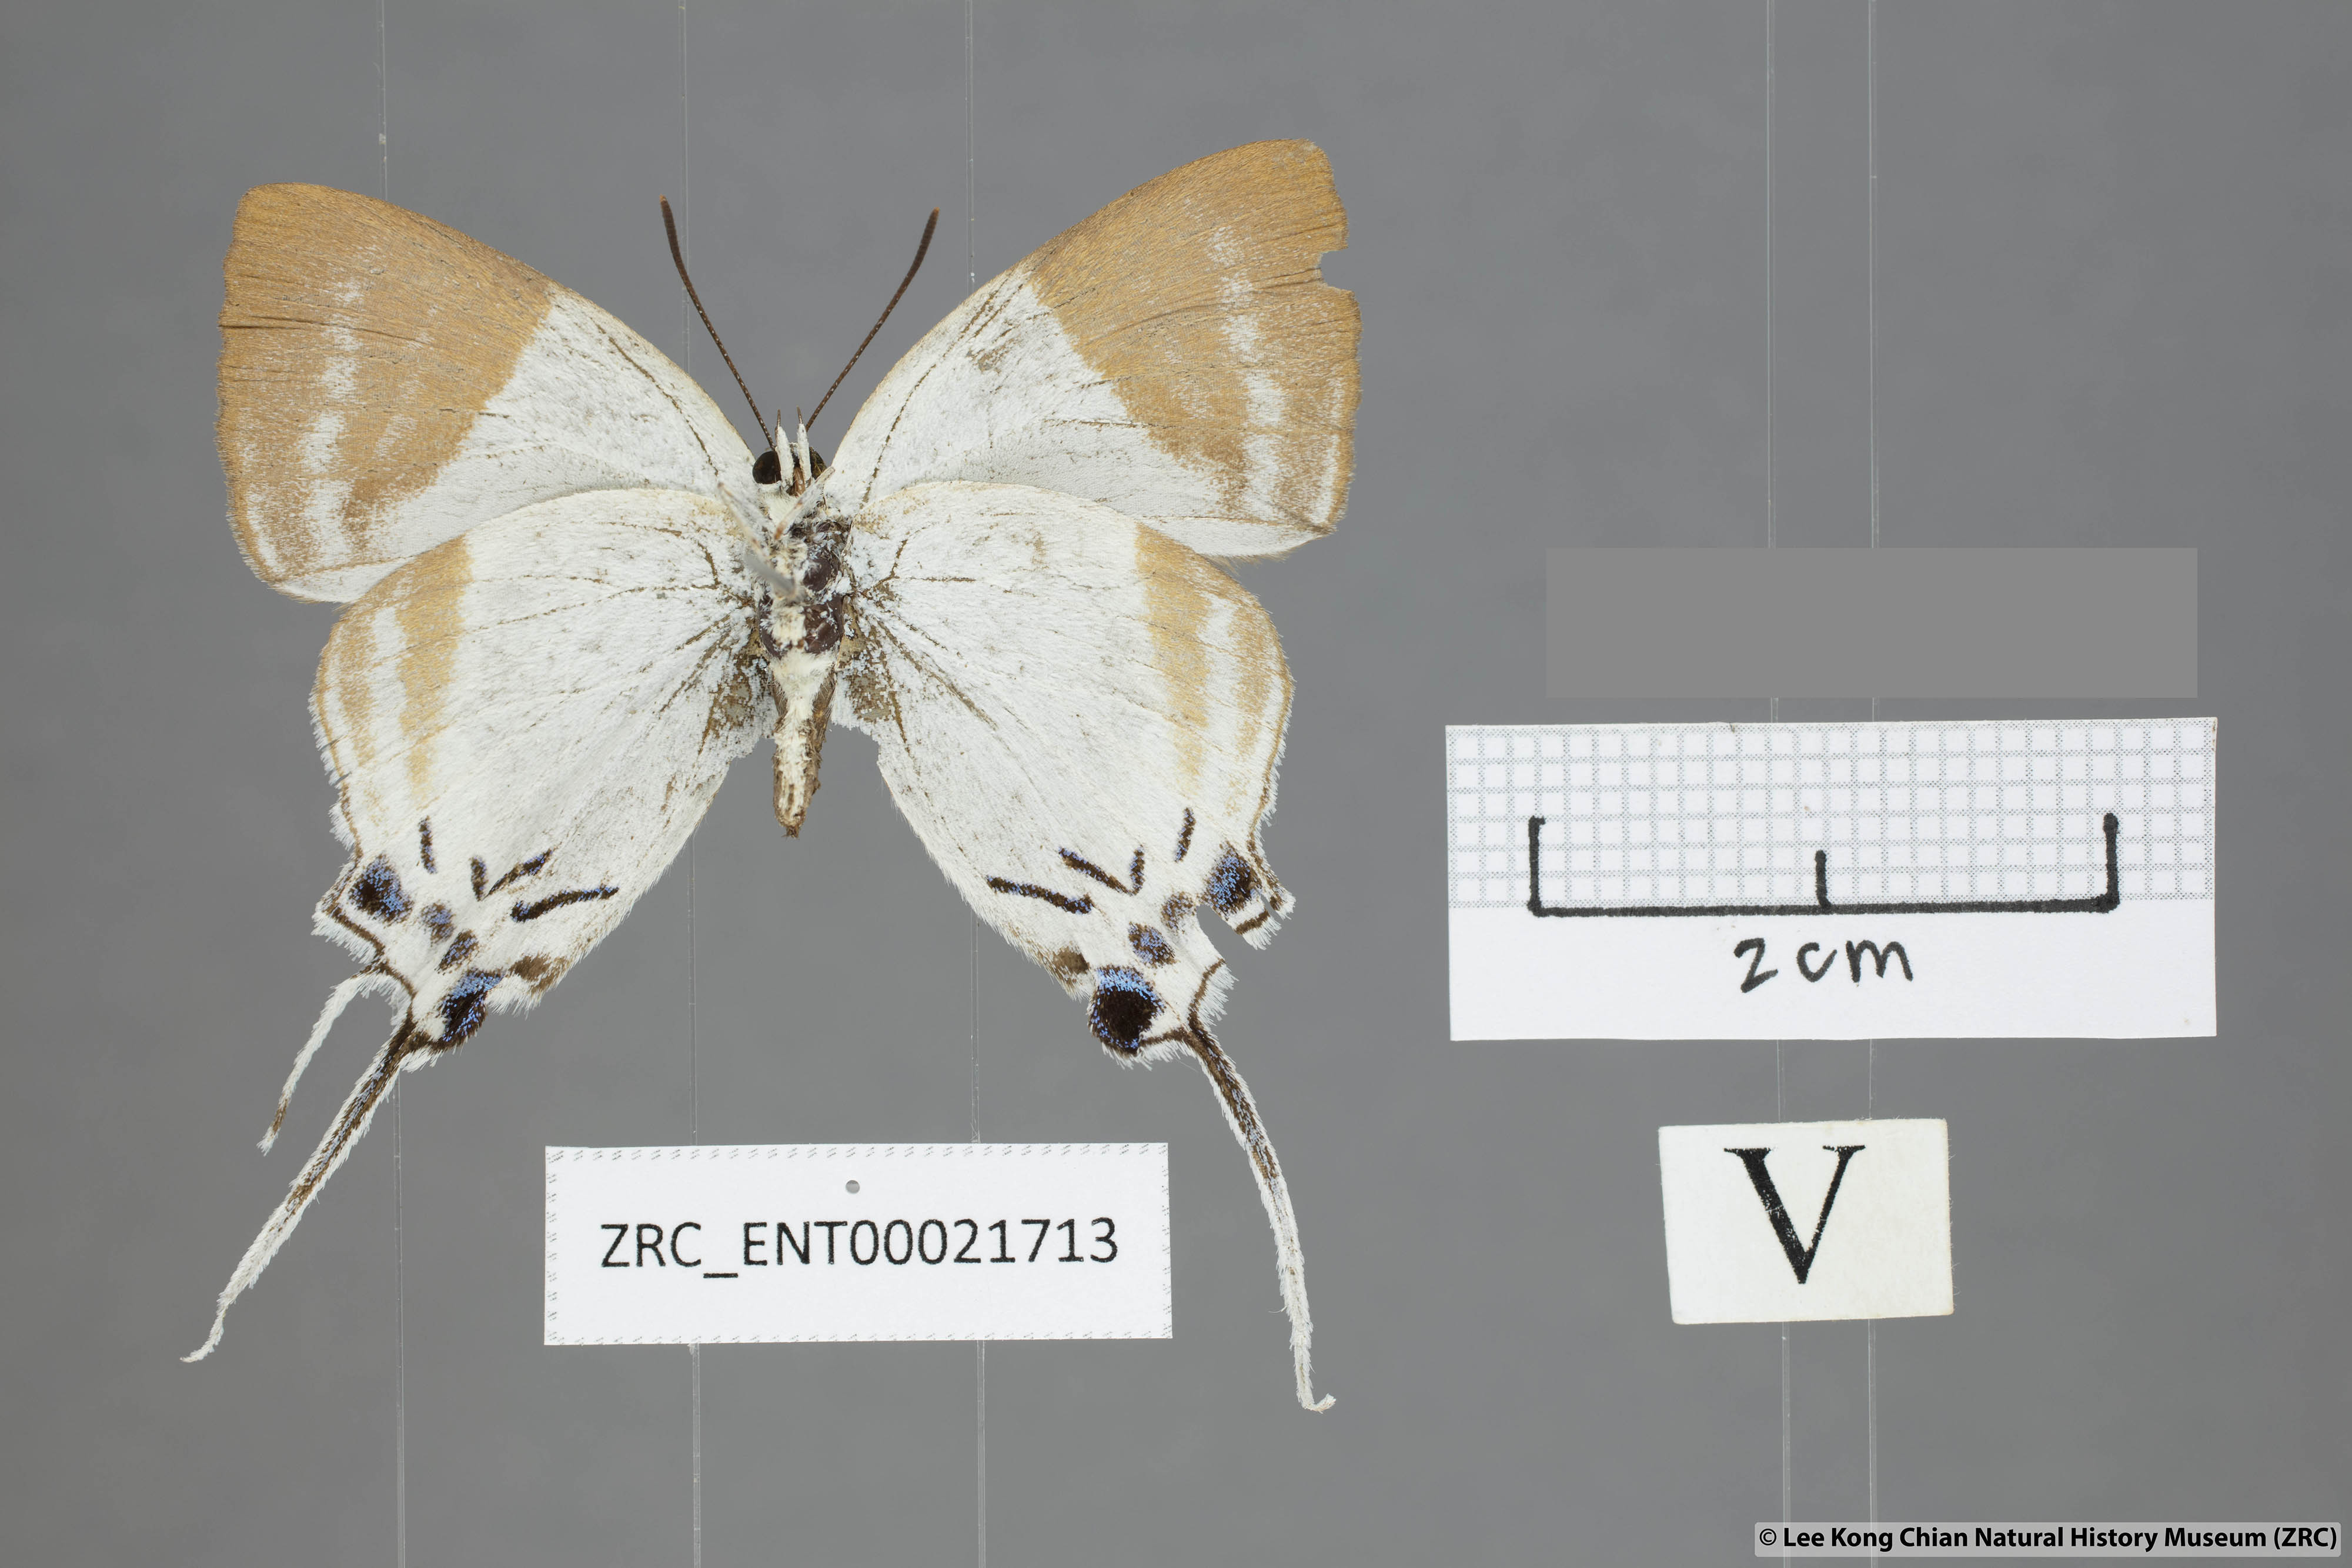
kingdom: Animalia
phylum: Arthropoda
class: Insecta
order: Lepidoptera
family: Lycaenidae
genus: Neocheritra
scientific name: Neocheritra
